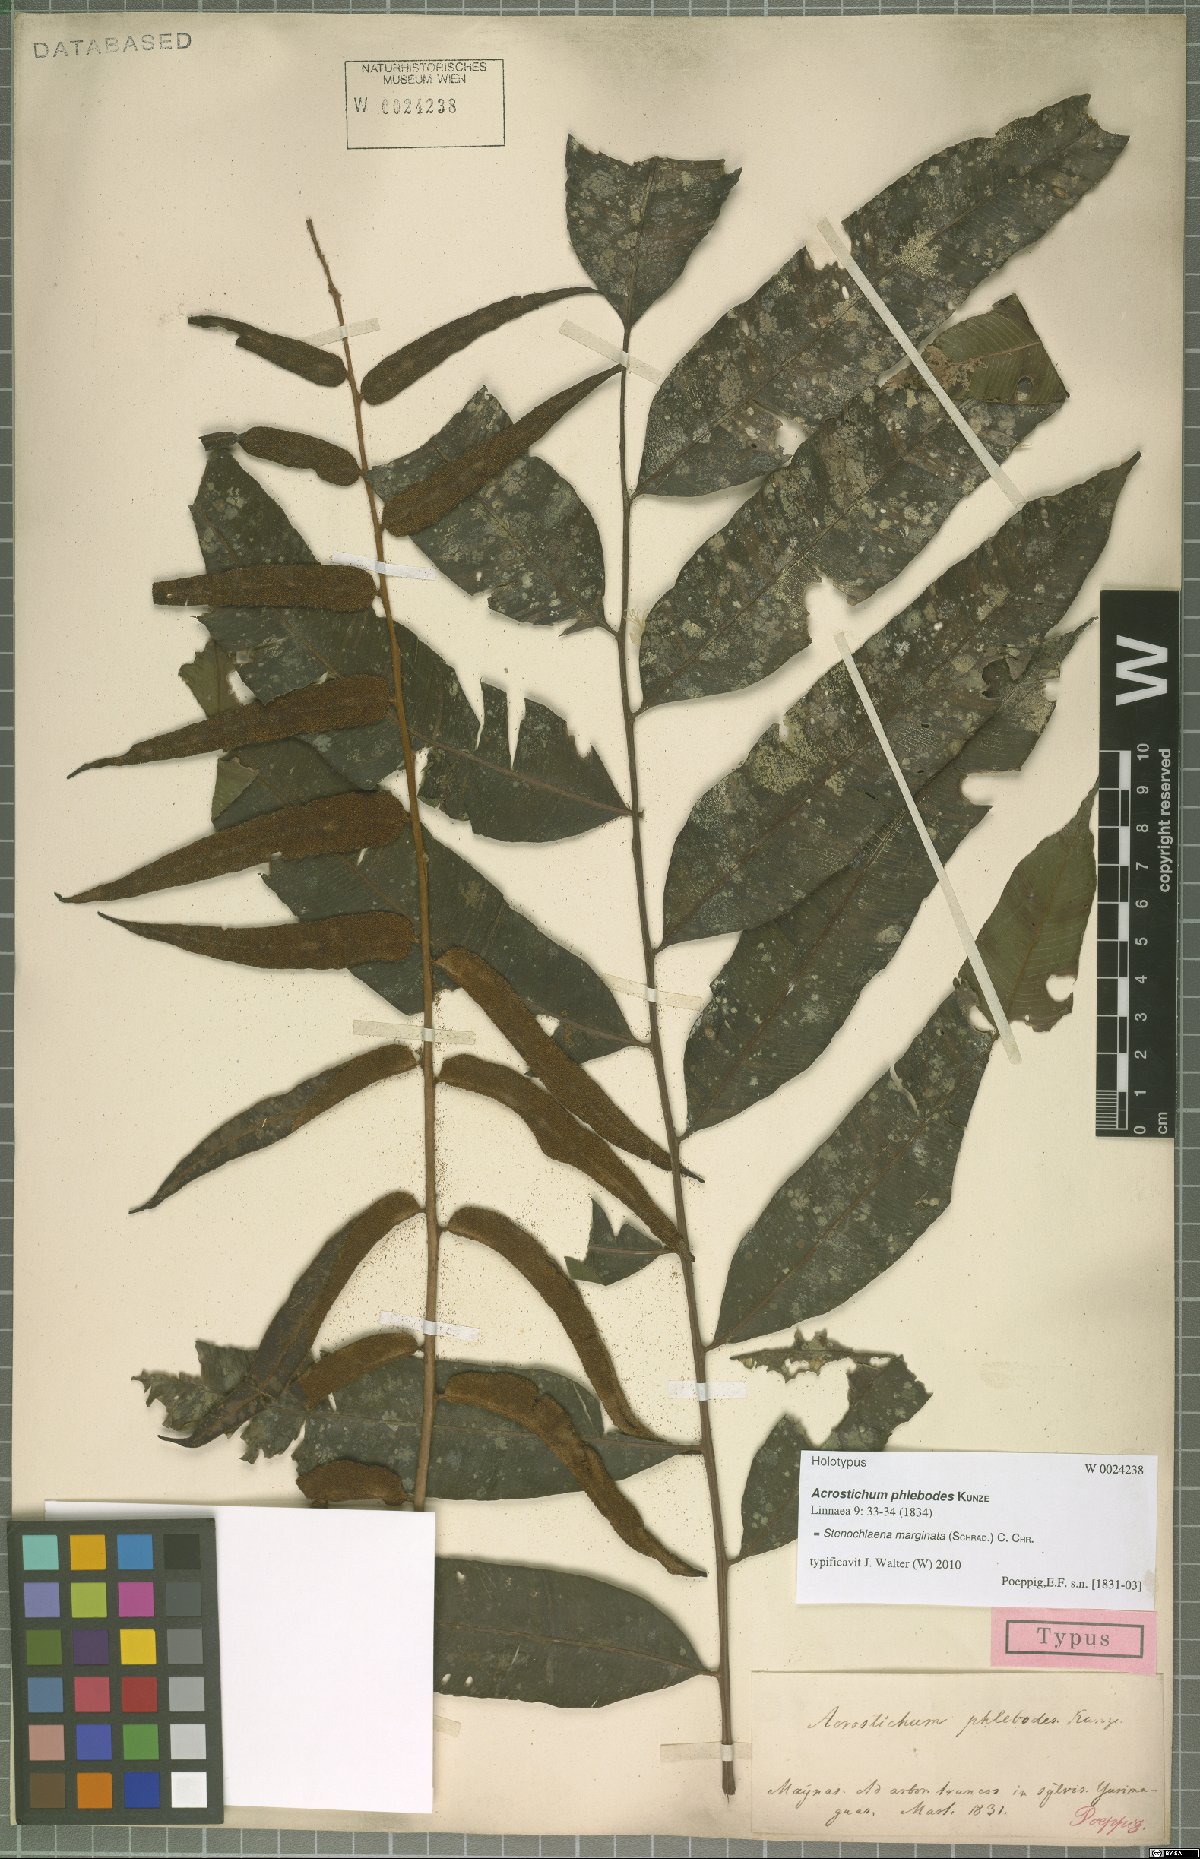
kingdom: Plantae
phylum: Tracheophyta
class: Polypodiopsida
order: Polypodiales
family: Lomariopsidaceae
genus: Lomariopsis
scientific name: Lomariopsis marginata
